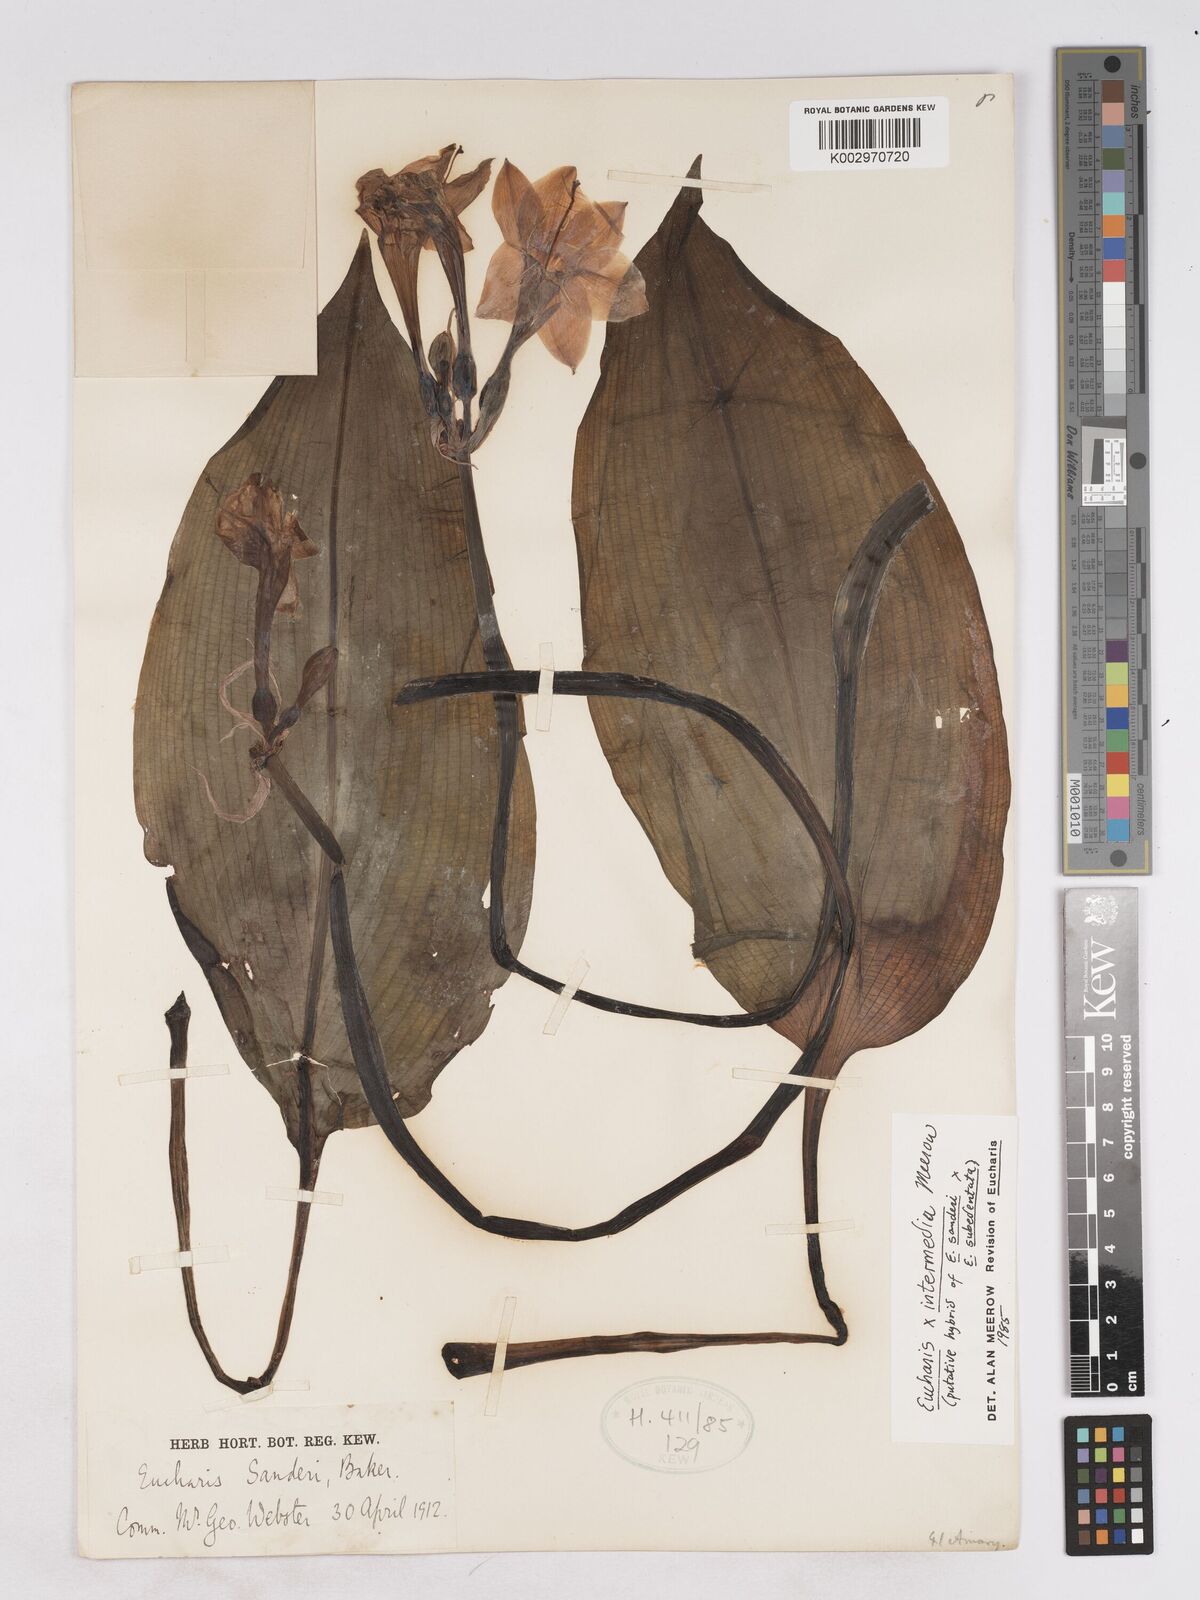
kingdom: Plantae
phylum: Tracheophyta
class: Liliopsida
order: Asparagales
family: Amaryllidaceae
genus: Calicharis
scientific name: Calicharis butcheri
